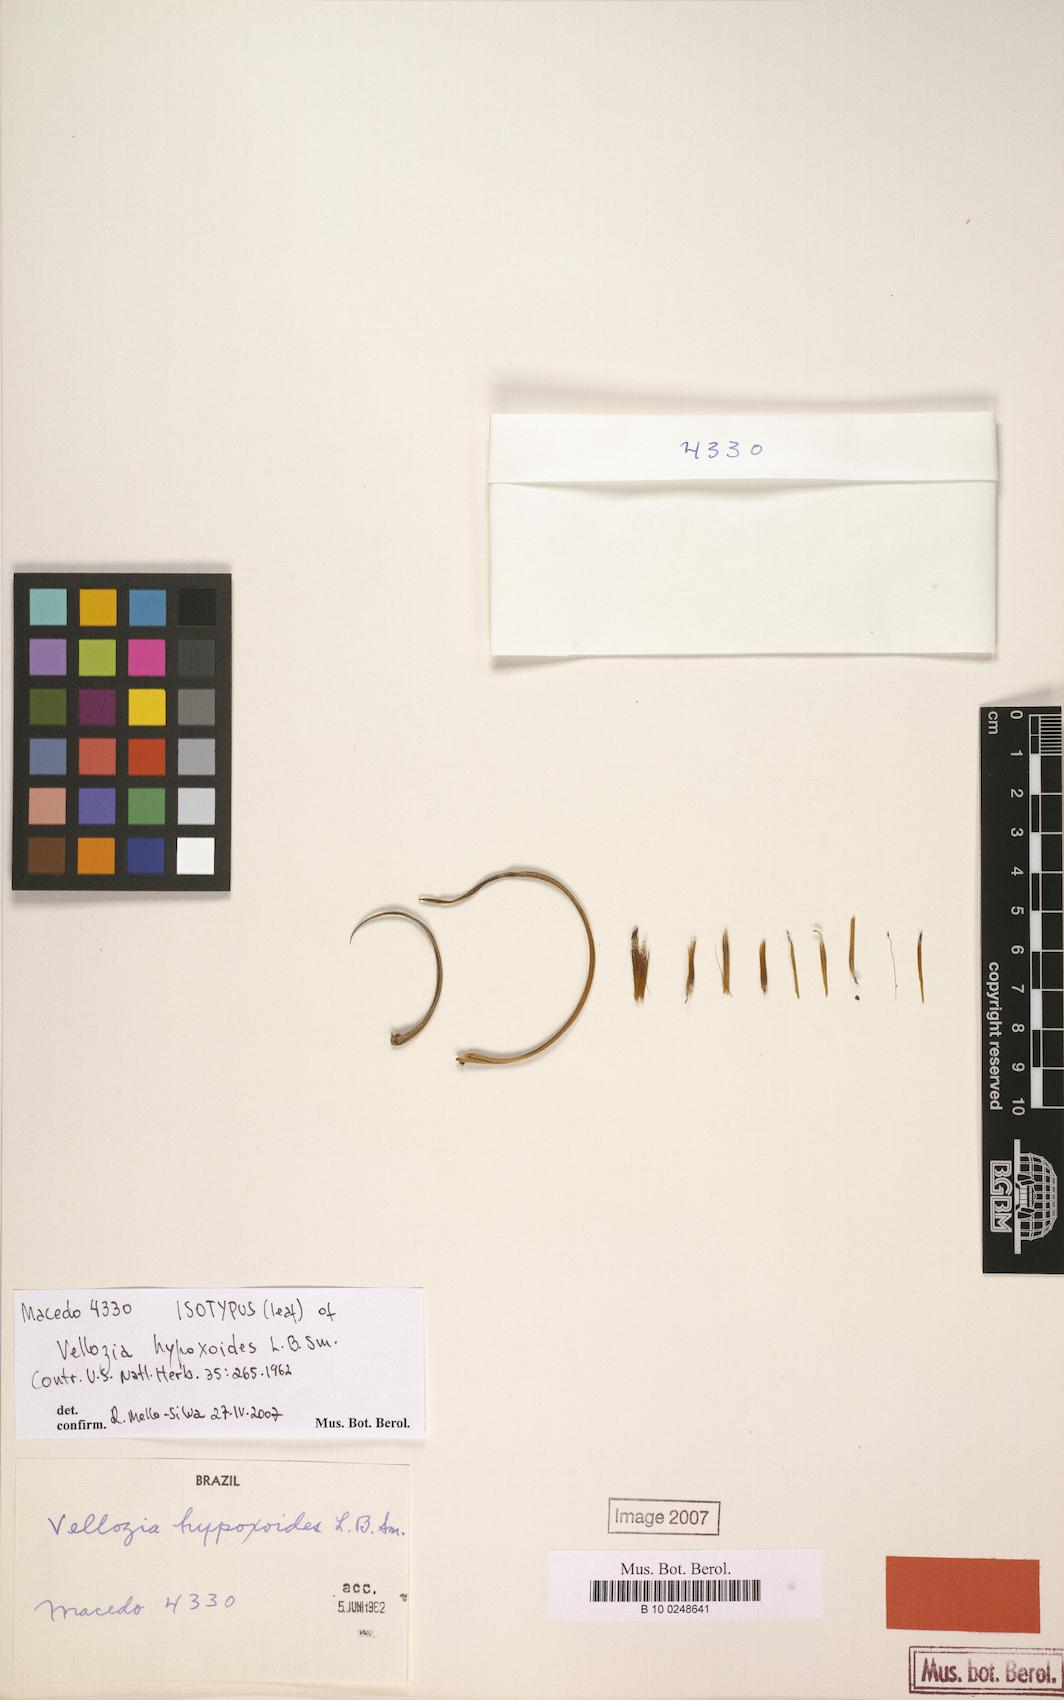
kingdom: Plantae
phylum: Tracheophyta
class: Liliopsida
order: Pandanales
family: Velloziaceae
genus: Vellozia
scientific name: Vellozia hypoxoides
